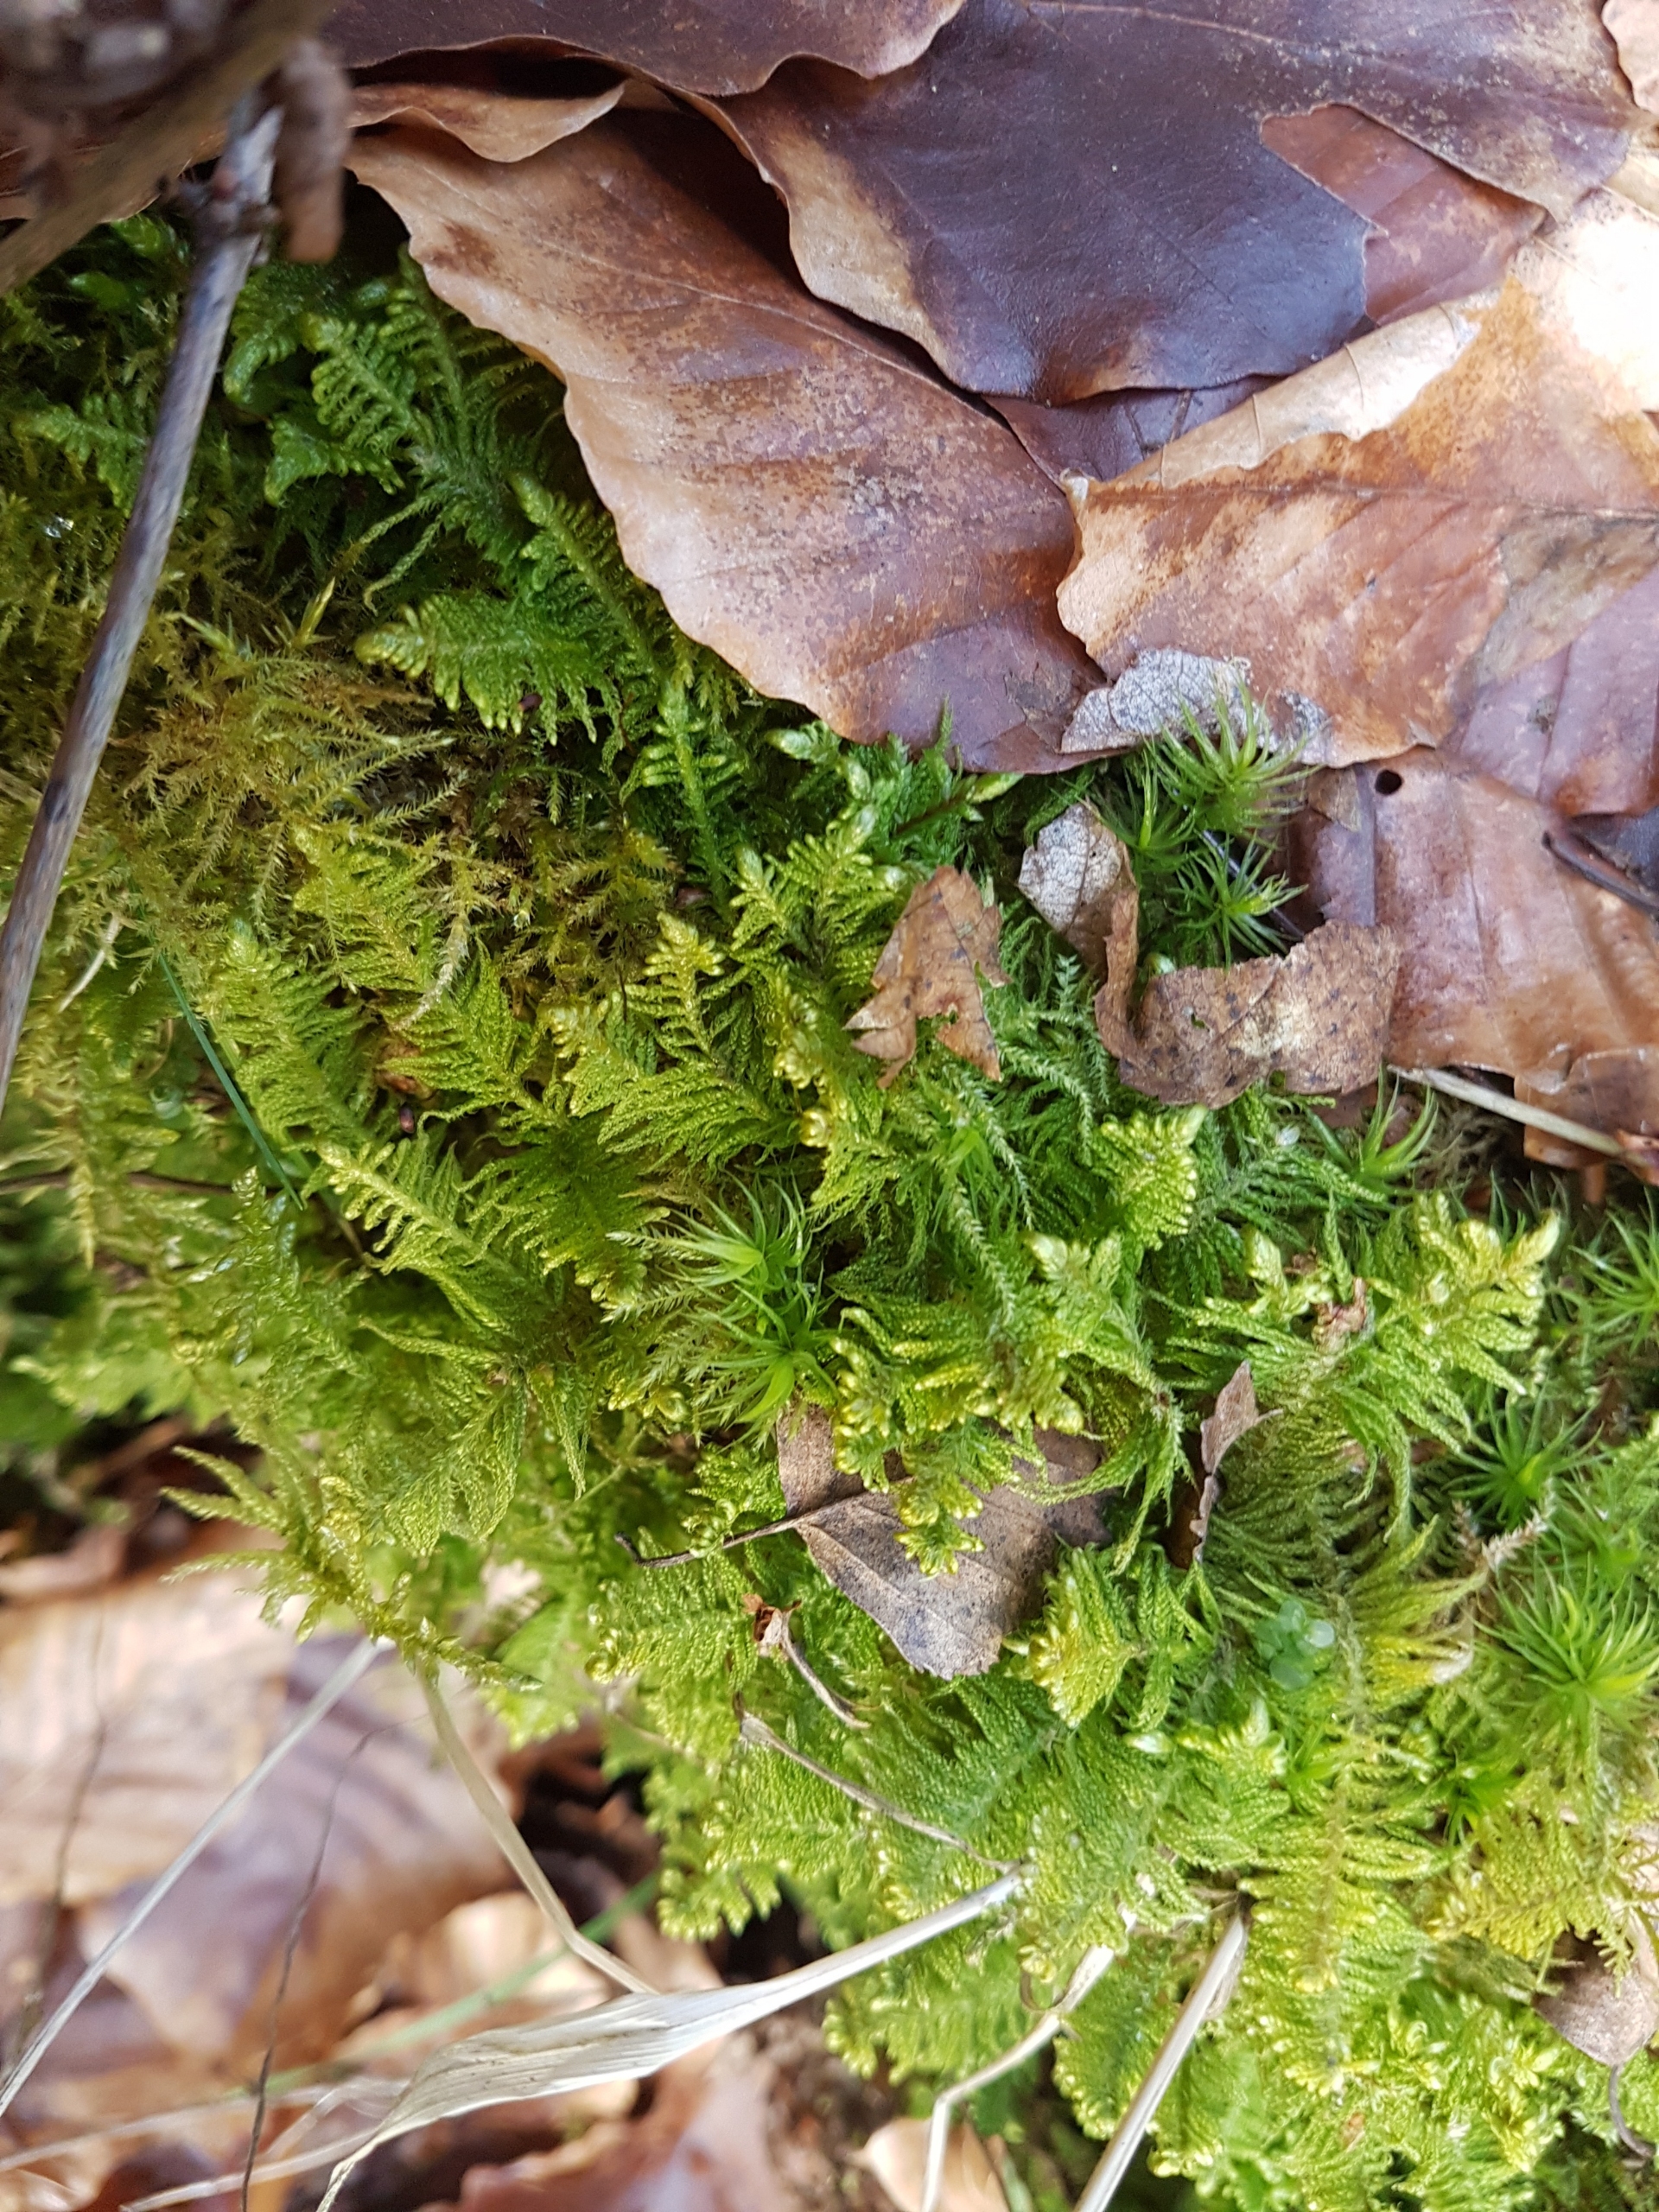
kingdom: Plantae
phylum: Bryophyta
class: Bryopsida
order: Hypnales
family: Pylaisiaceae
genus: Ptilium
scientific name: Ptilium crista-castrensis
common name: Fjer-kammos
